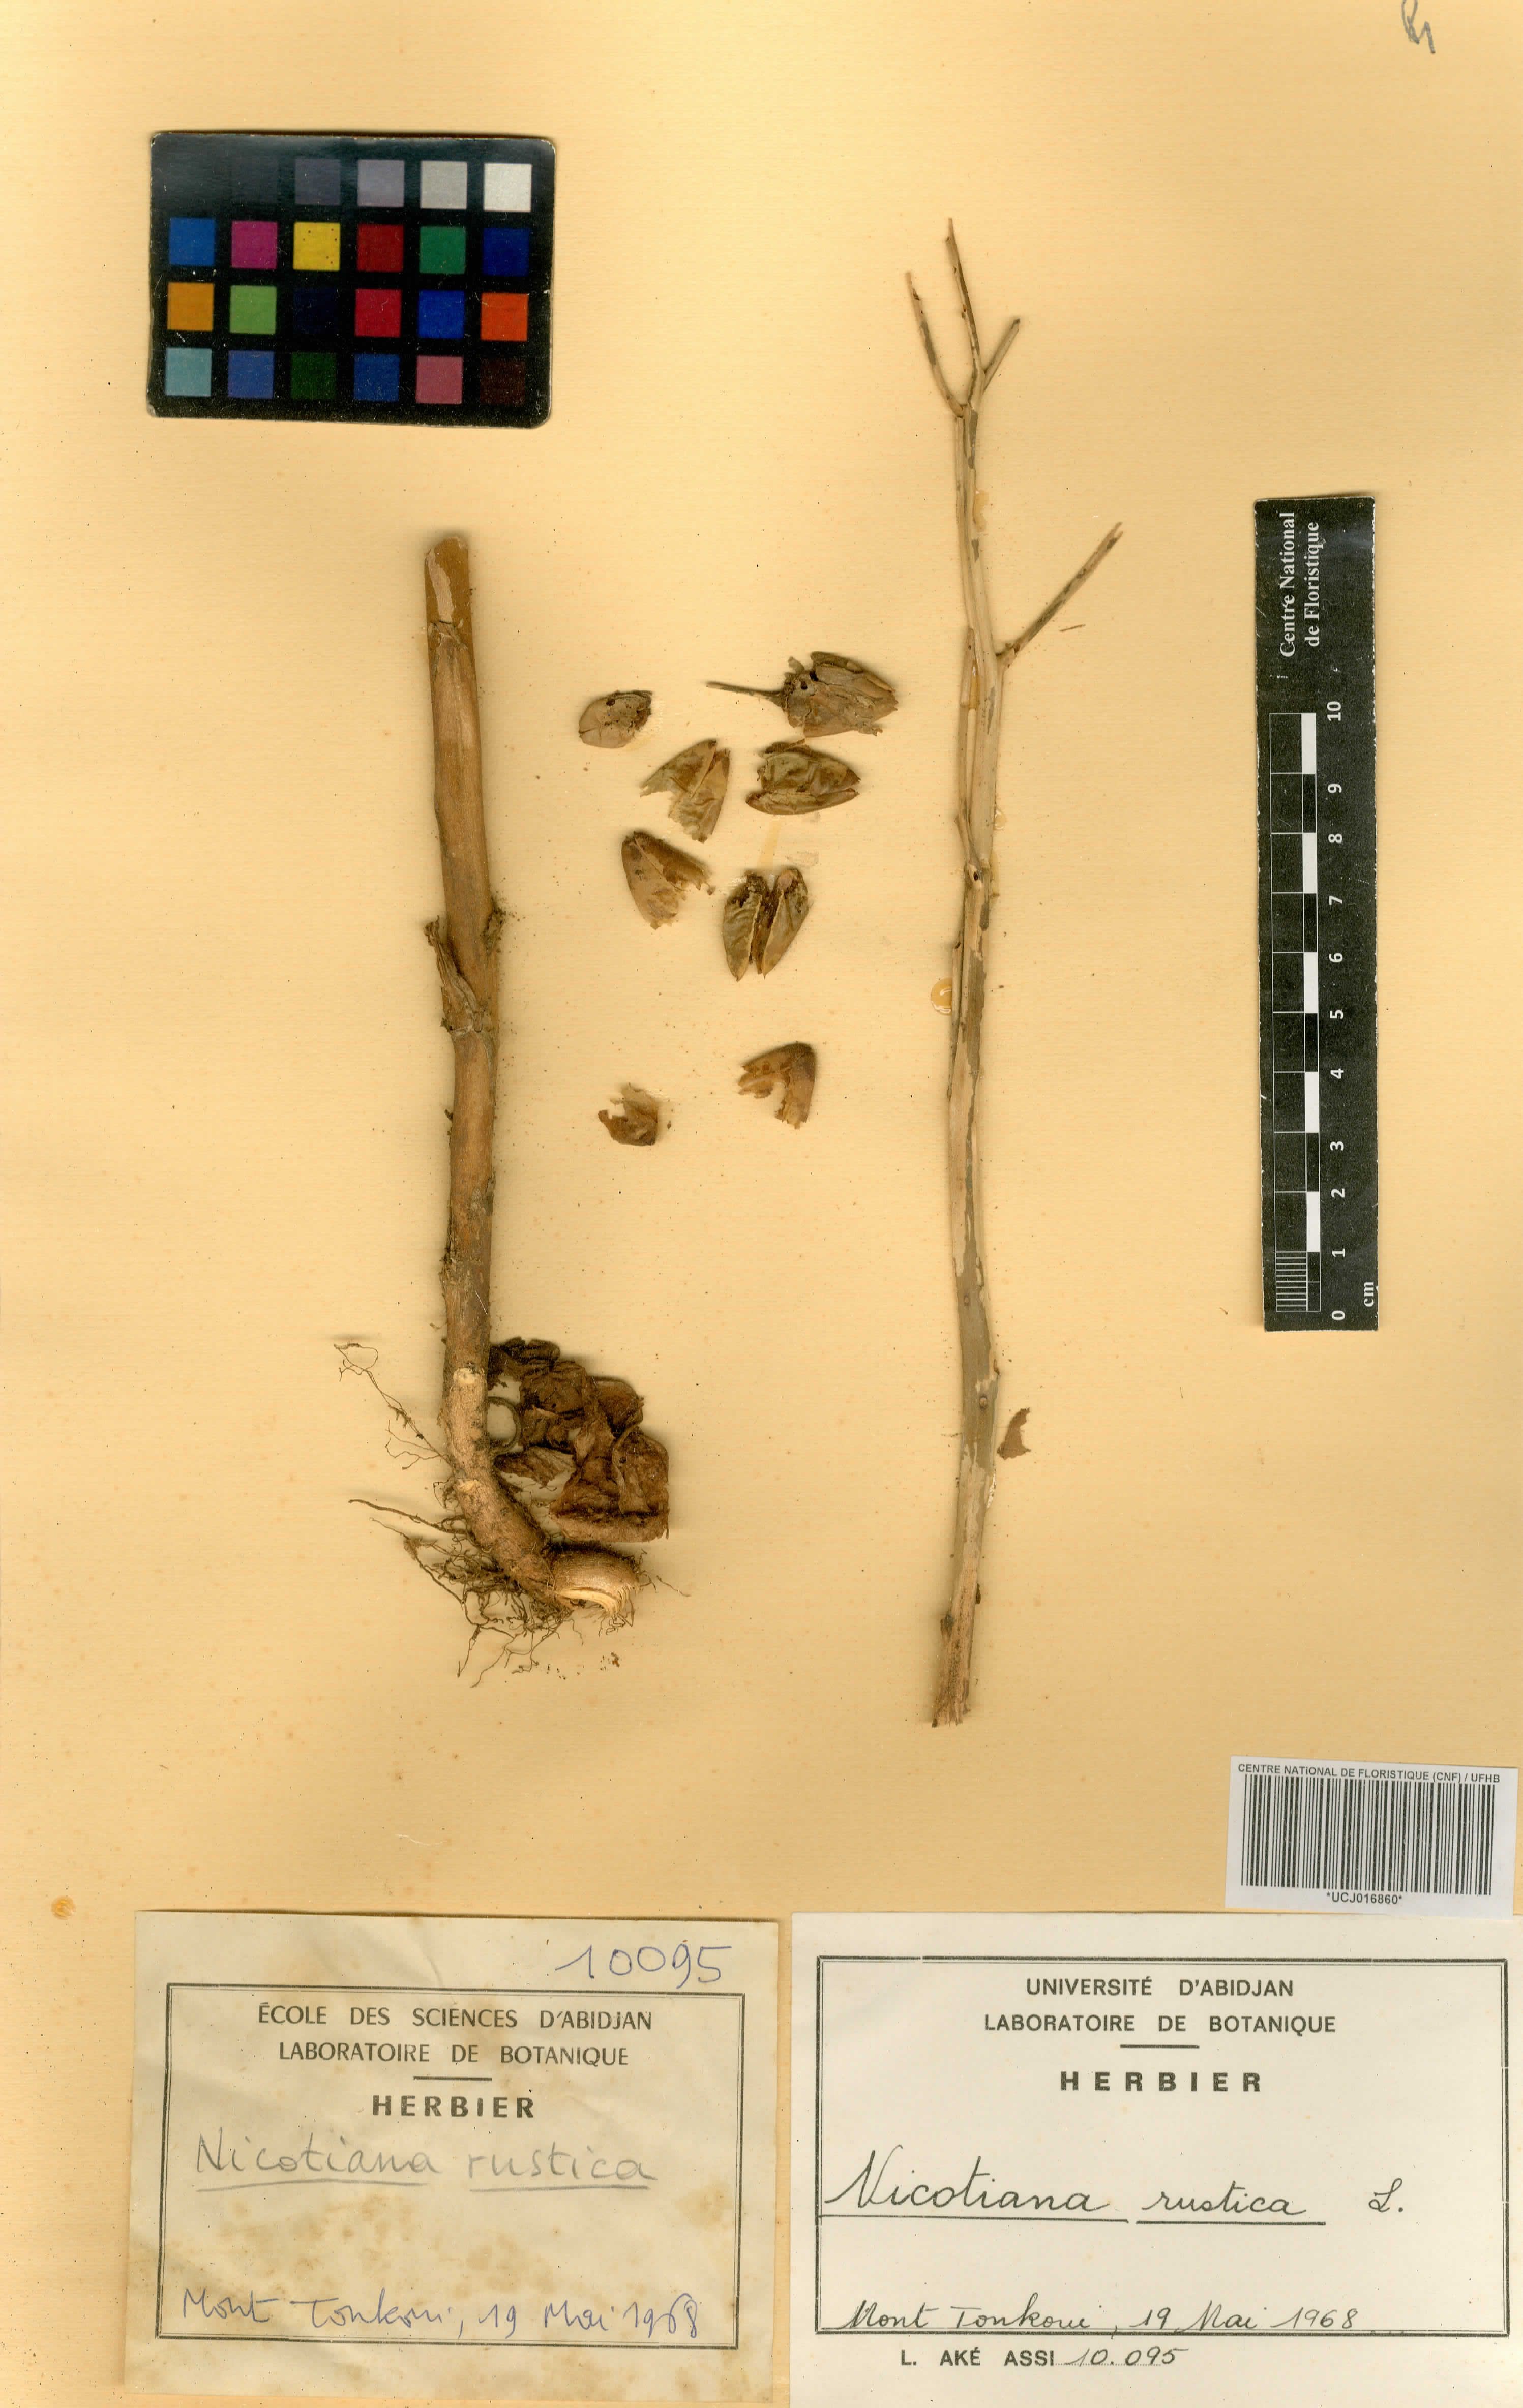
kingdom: Plantae
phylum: Tracheophyta
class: Magnoliopsida
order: Solanales
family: Solanaceae
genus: Nicotiana
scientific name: Nicotiana rustica
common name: Wild tobacco
